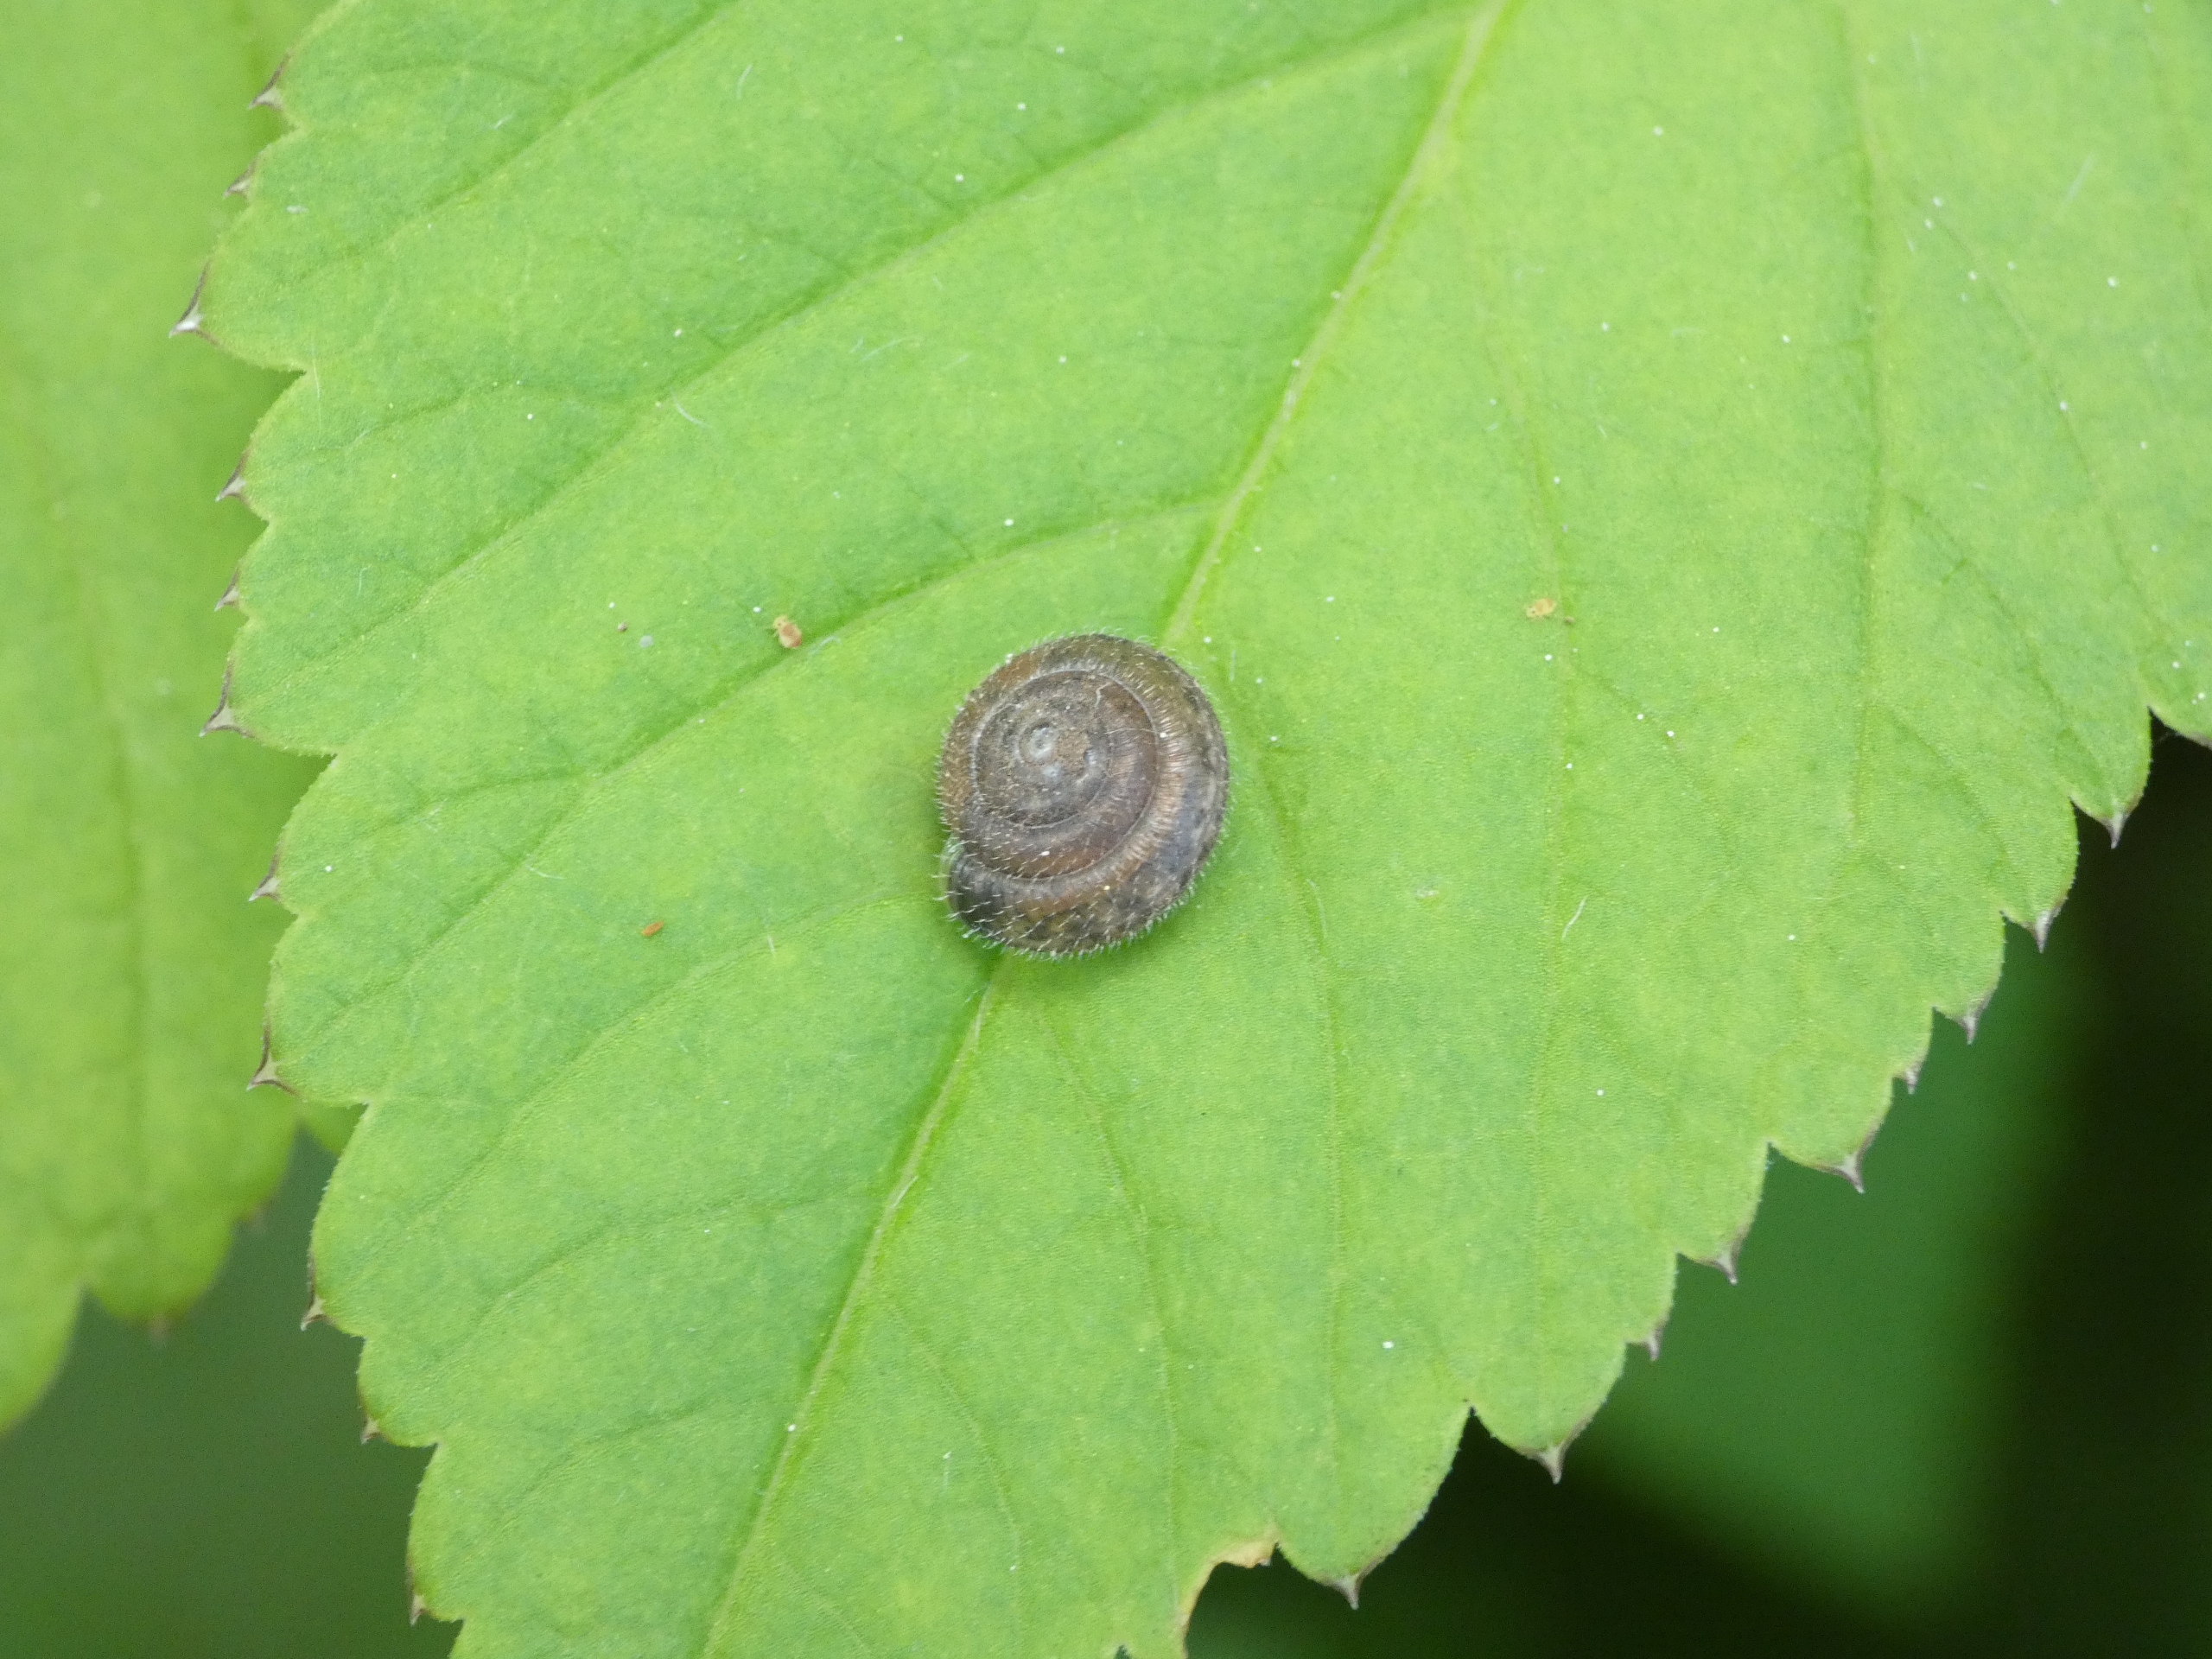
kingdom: Animalia
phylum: Mollusca
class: Gastropoda
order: Stylommatophora
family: Hygromiidae
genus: Trochulus
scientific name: Trochulus hispidus
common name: Håret snegl
